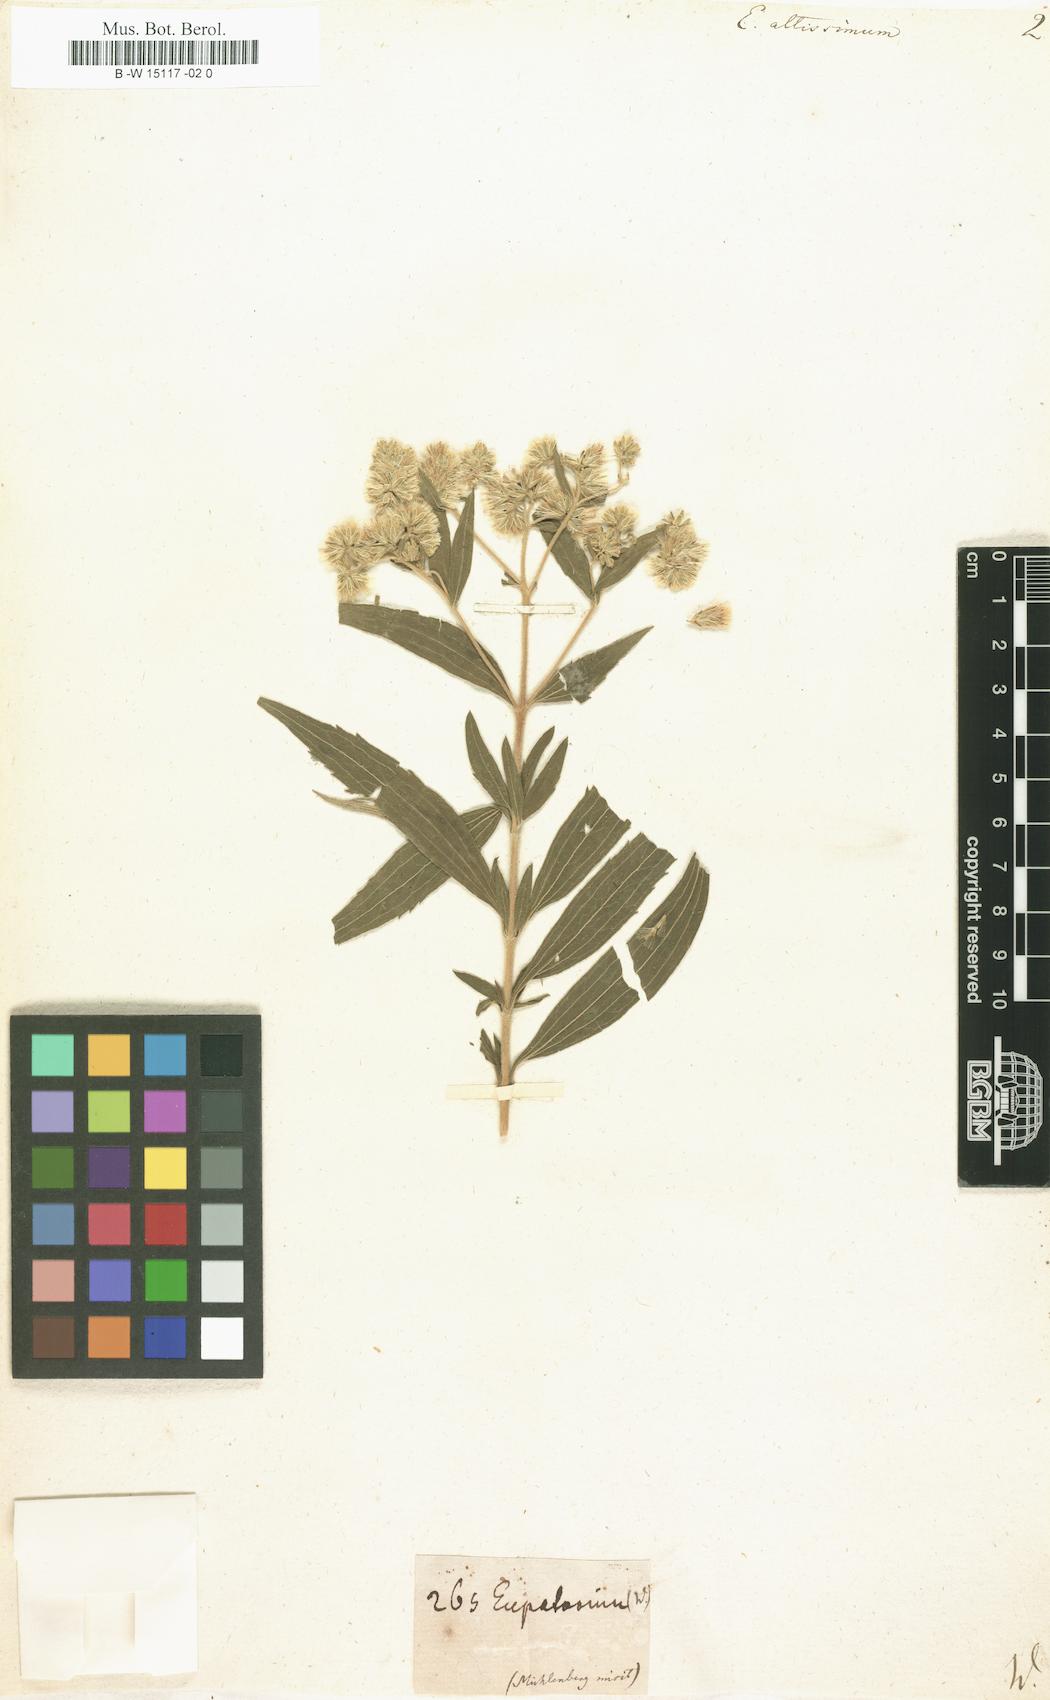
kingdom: Plantae
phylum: Tracheophyta
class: Magnoliopsida
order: Asterales
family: Asteraceae
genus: Eupatorium
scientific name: Eupatorium altissimum
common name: Tall thoroughwort
